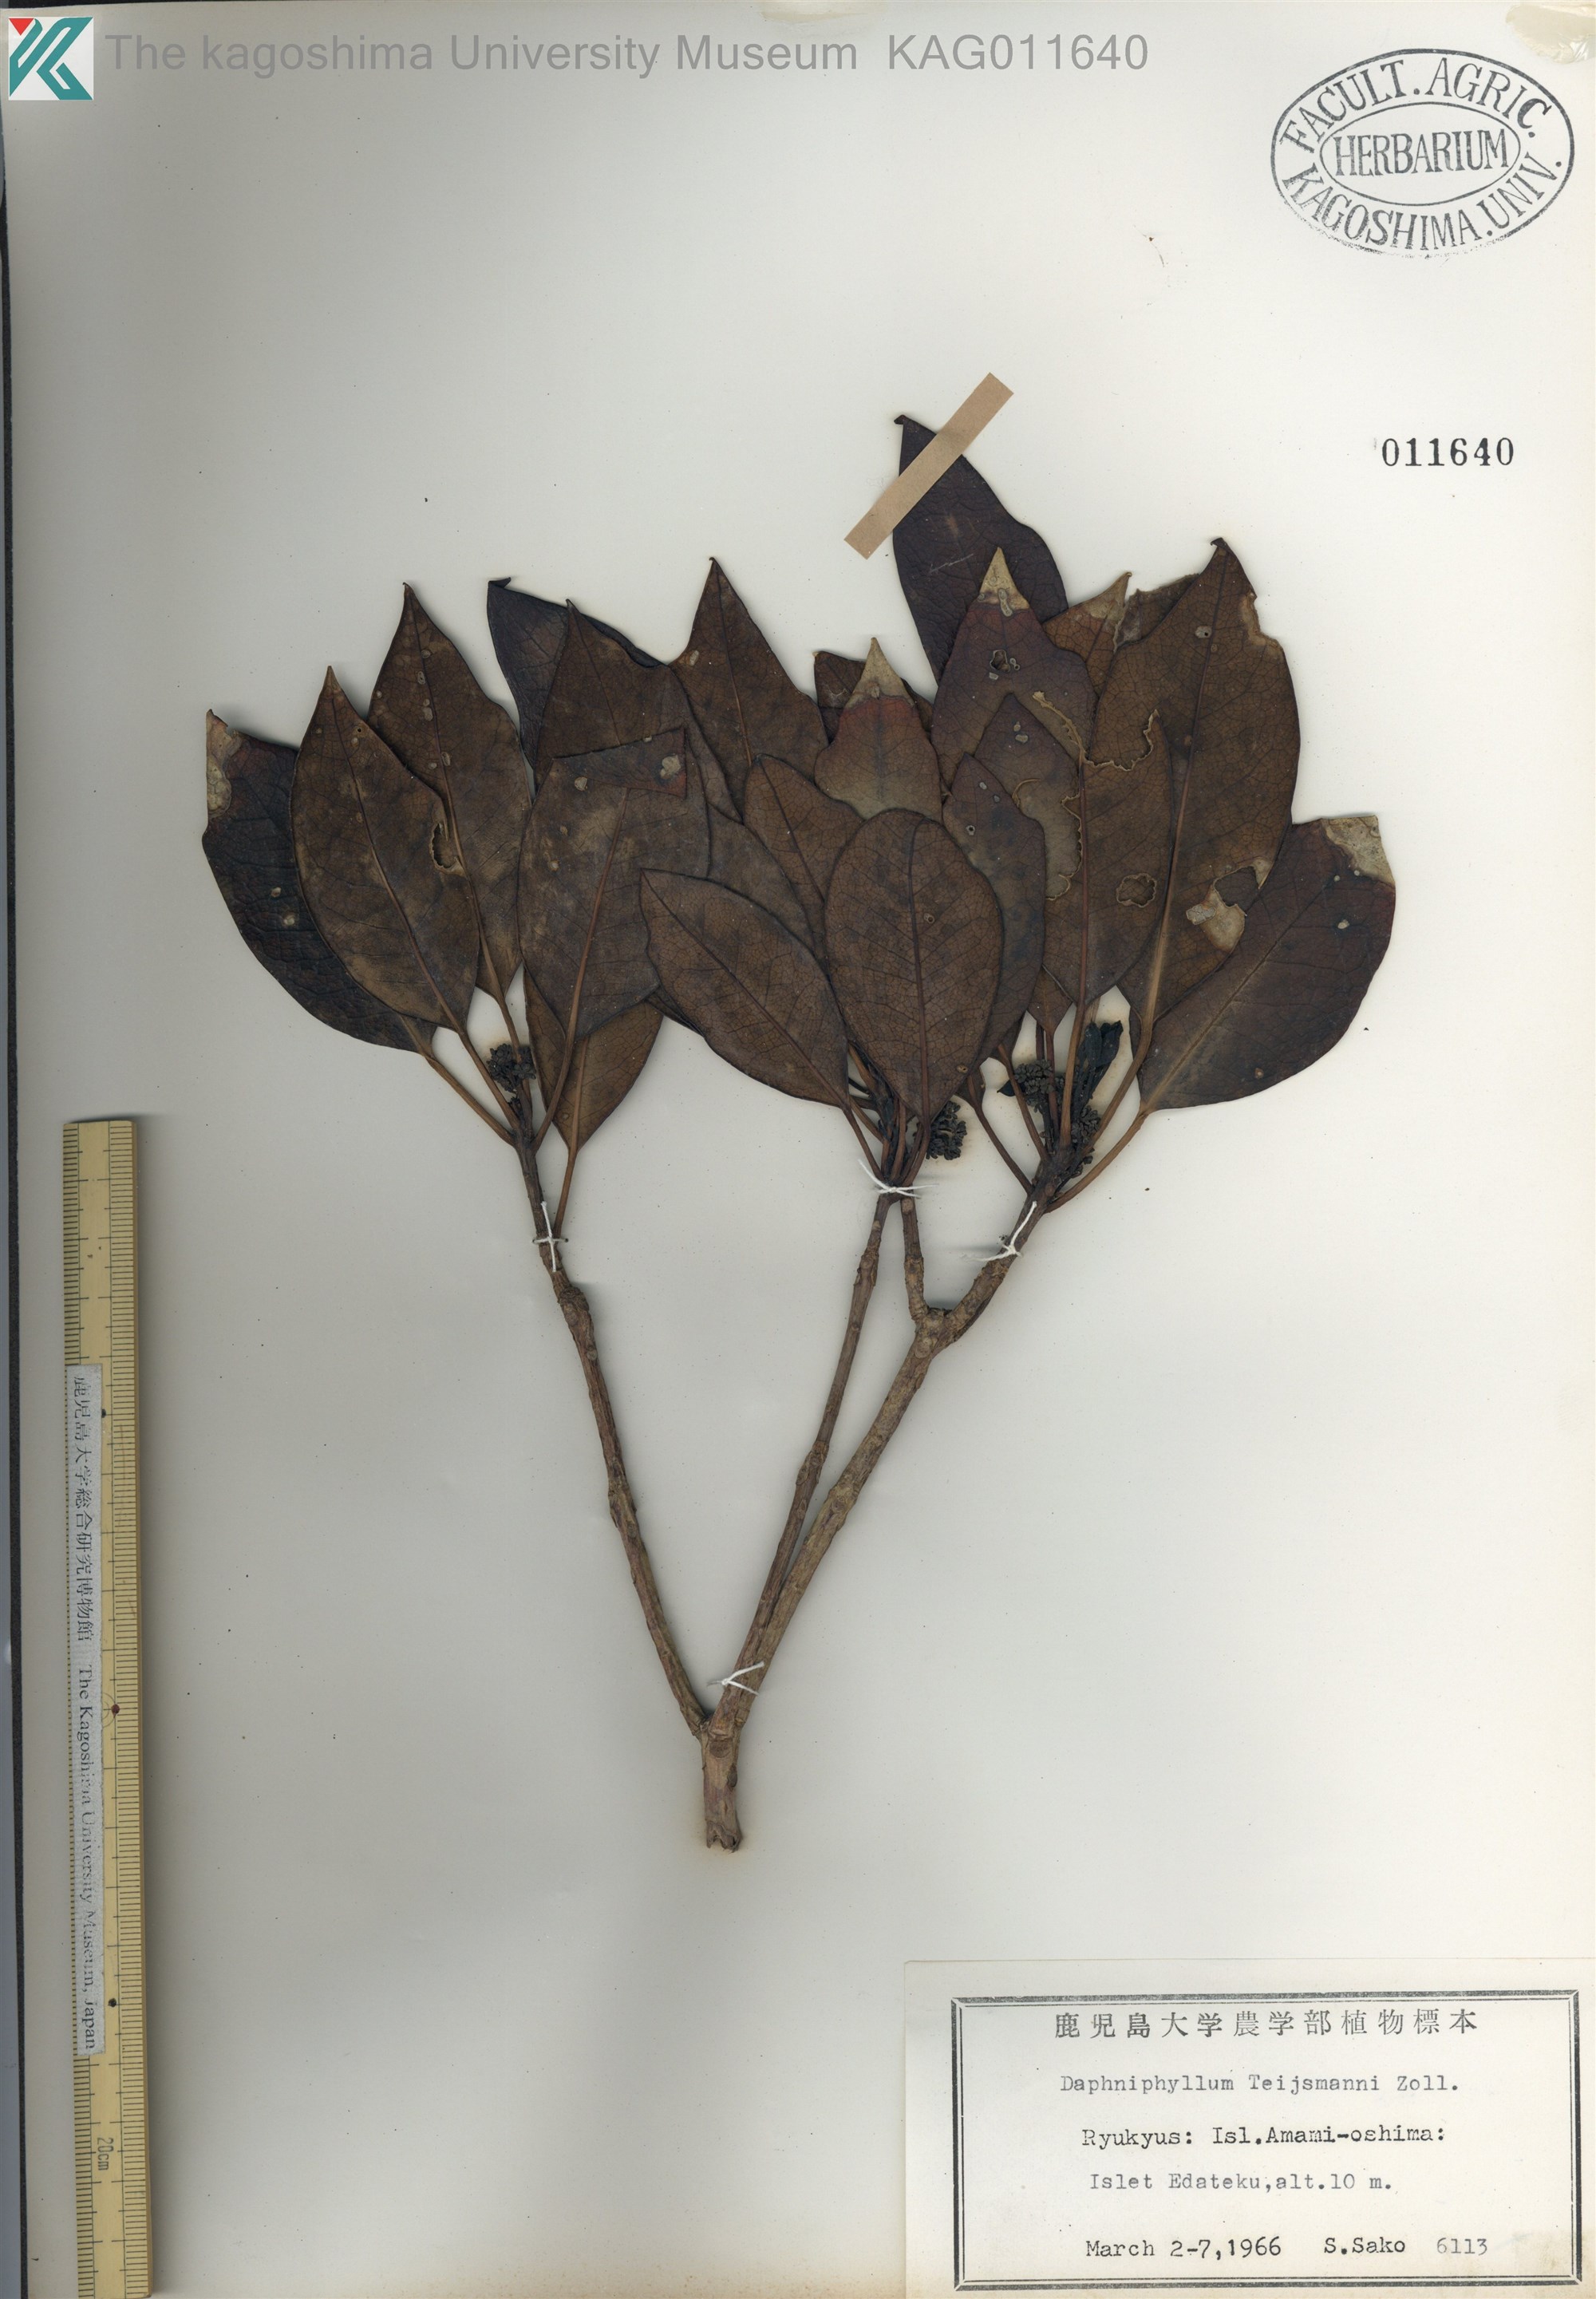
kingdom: Plantae
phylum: Tracheophyta
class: Magnoliopsida
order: Saxifragales
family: Daphniphyllaceae
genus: Daphniphyllum
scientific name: Daphniphyllum teijsmannii
